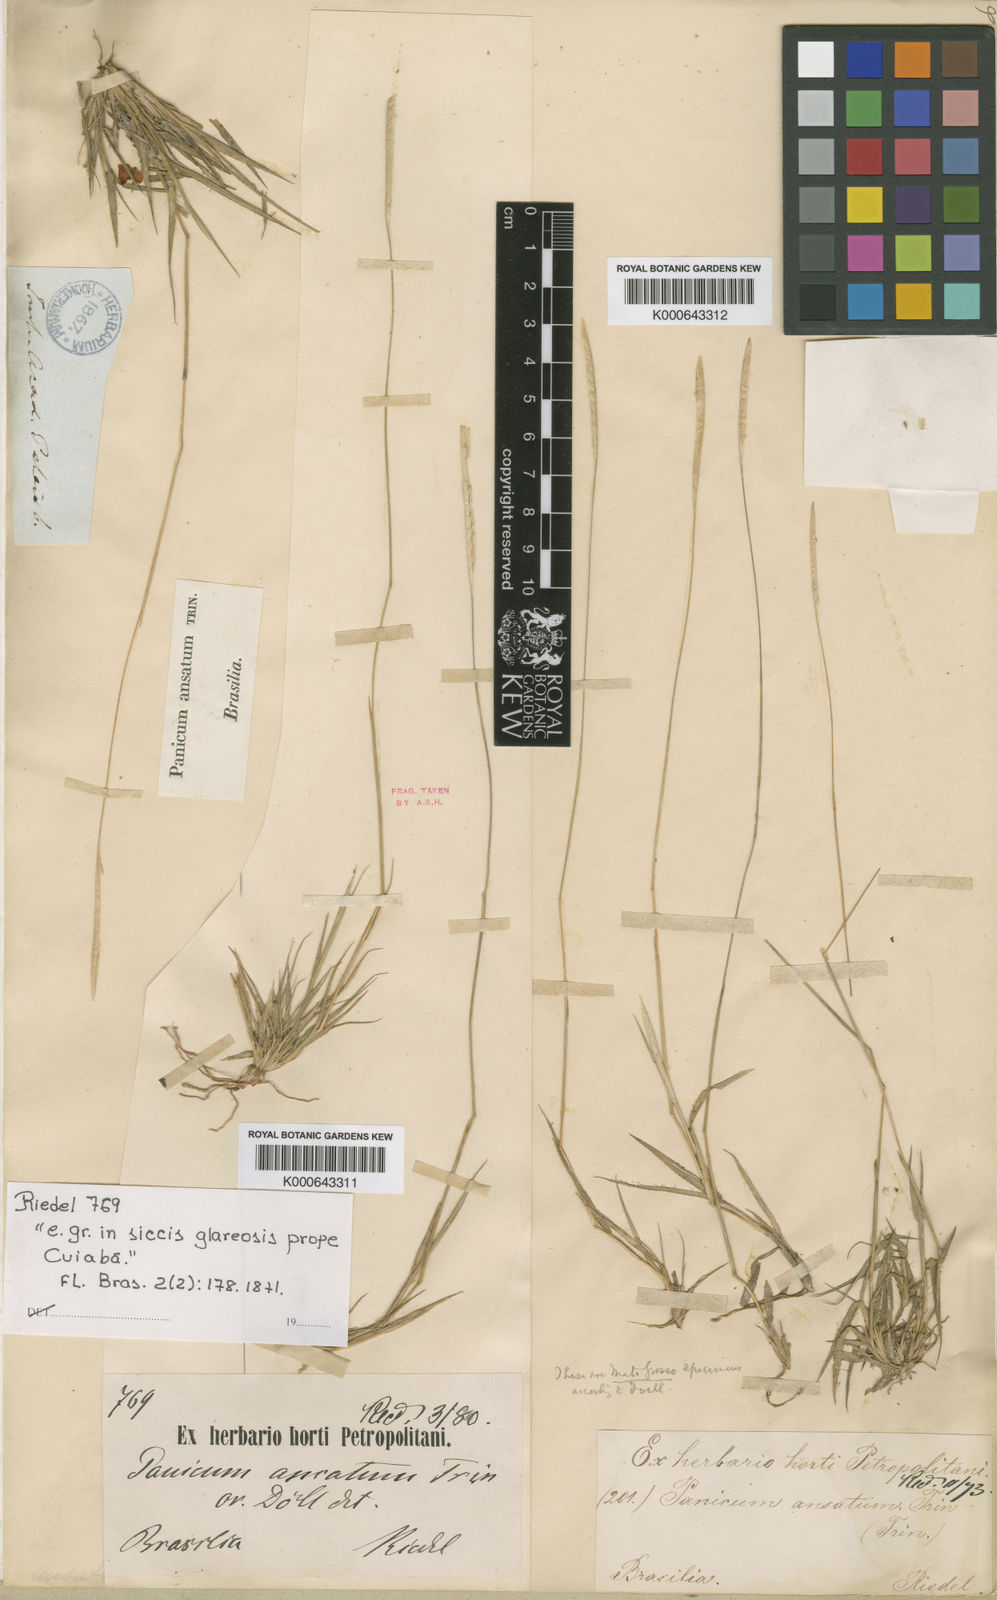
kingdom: Plantae
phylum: Tracheophyta
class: Liliopsida
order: Poales
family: Poaceae
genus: Mesosetum
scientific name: Mesosetum ansatum
